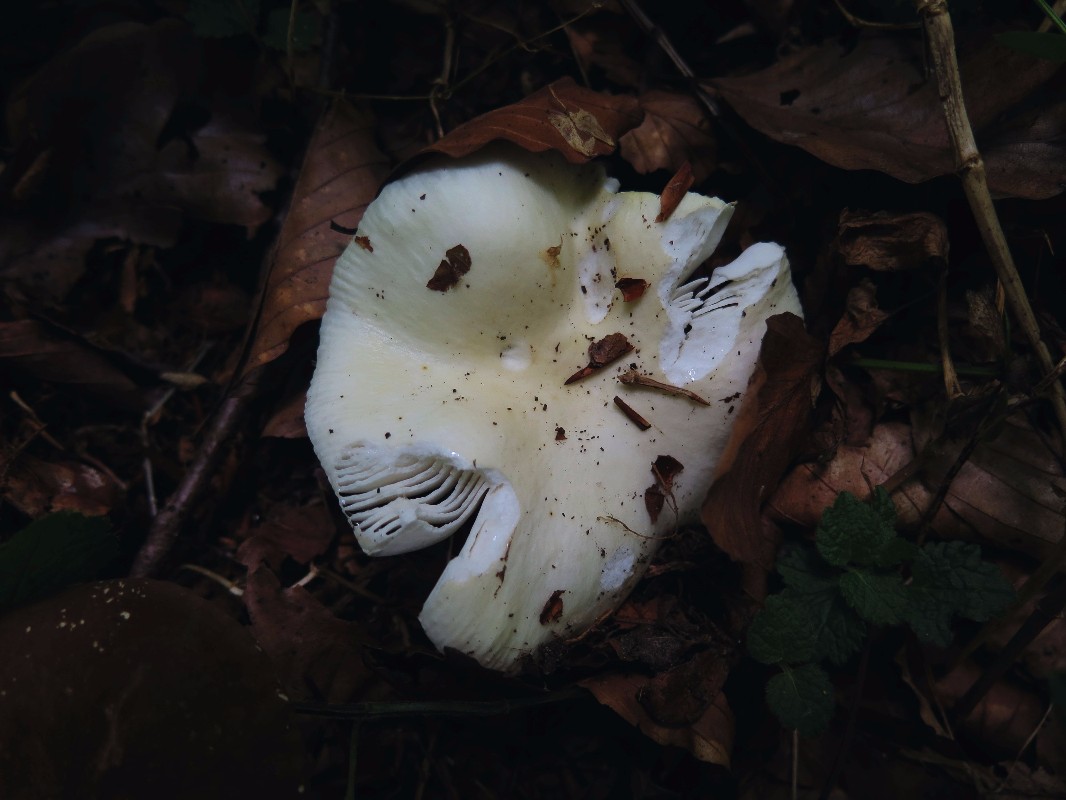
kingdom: Fungi
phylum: Basidiomycota
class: Agaricomycetes
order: Russulales
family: Russulaceae
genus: Russula
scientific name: Russula raoultii
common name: bleggul skørhat
